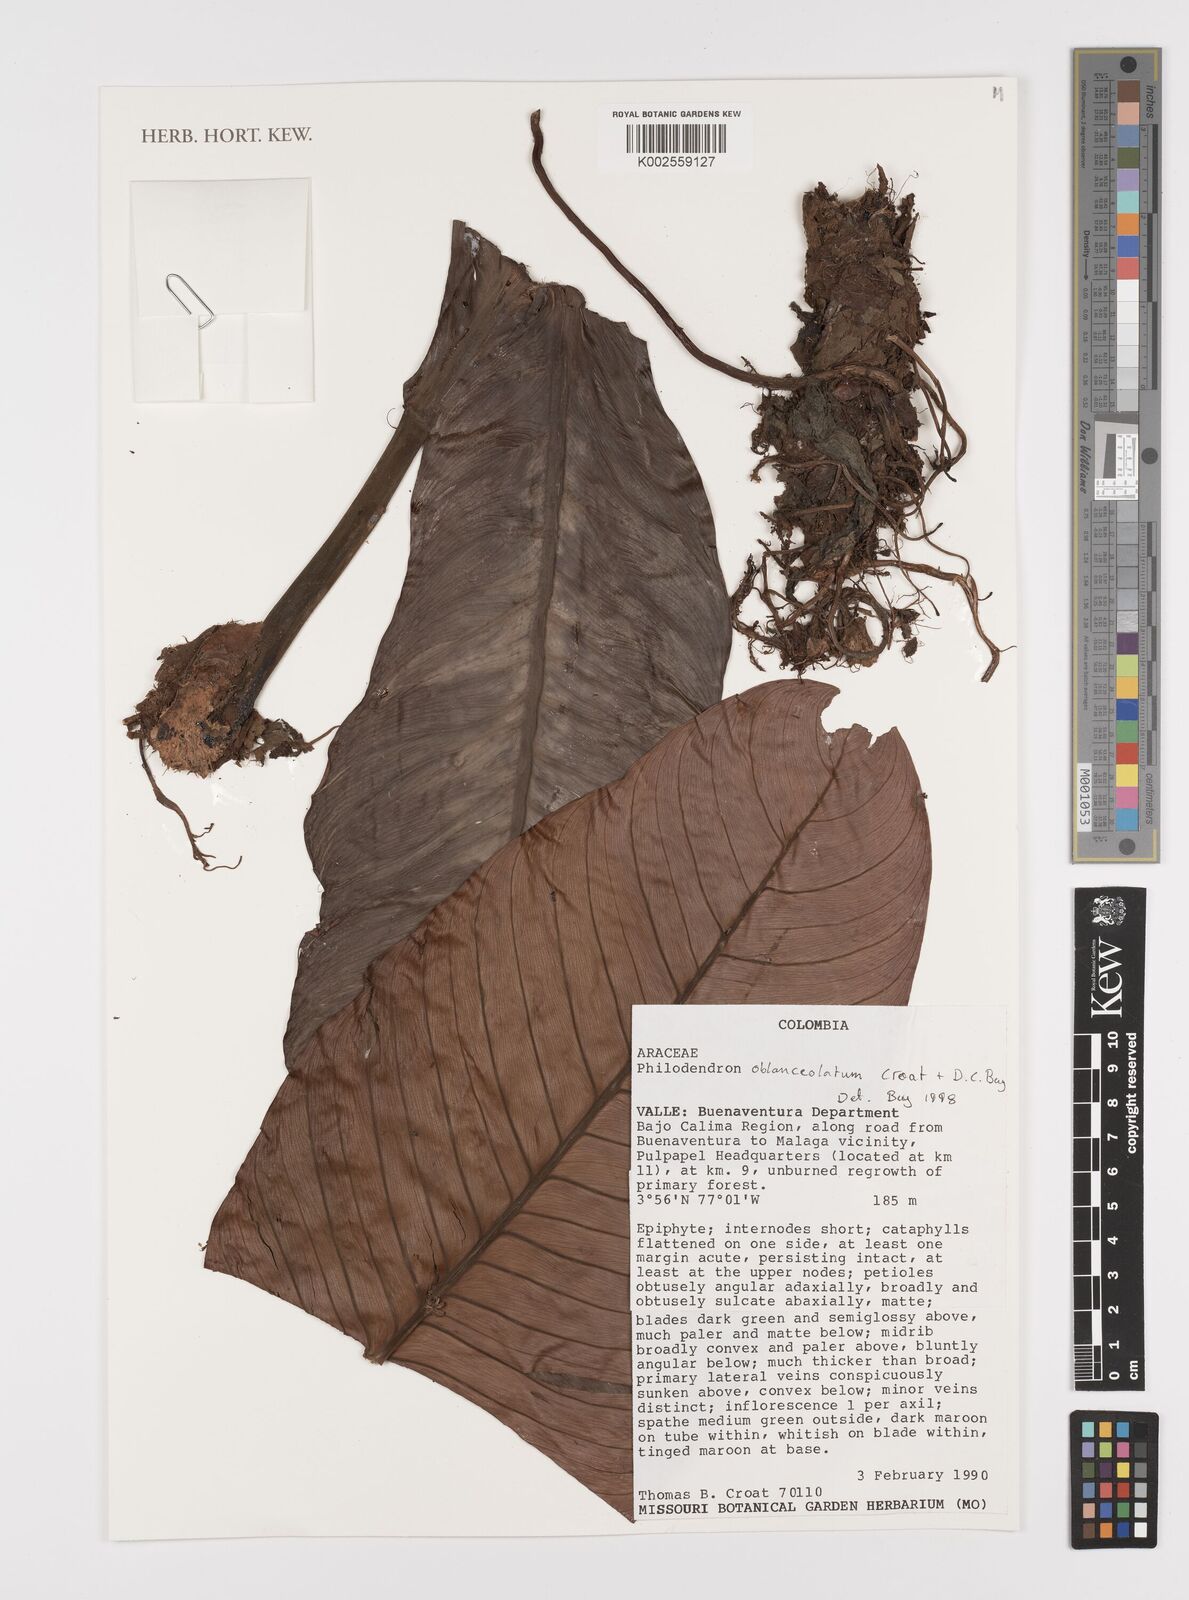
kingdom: Plantae
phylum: Tracheophyta
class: Liliopsida
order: Alismatales
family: Araceae
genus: Philodendron
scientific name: Philodendron oblanceolatum
